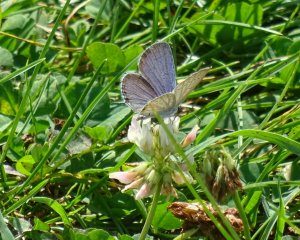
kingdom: Animalia
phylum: Arthropoda
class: Insecta
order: Lepidoptera
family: Lycaenidae
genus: Elkalyce
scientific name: Elkalyce comyntas
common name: Eastern Tailed-Blue
